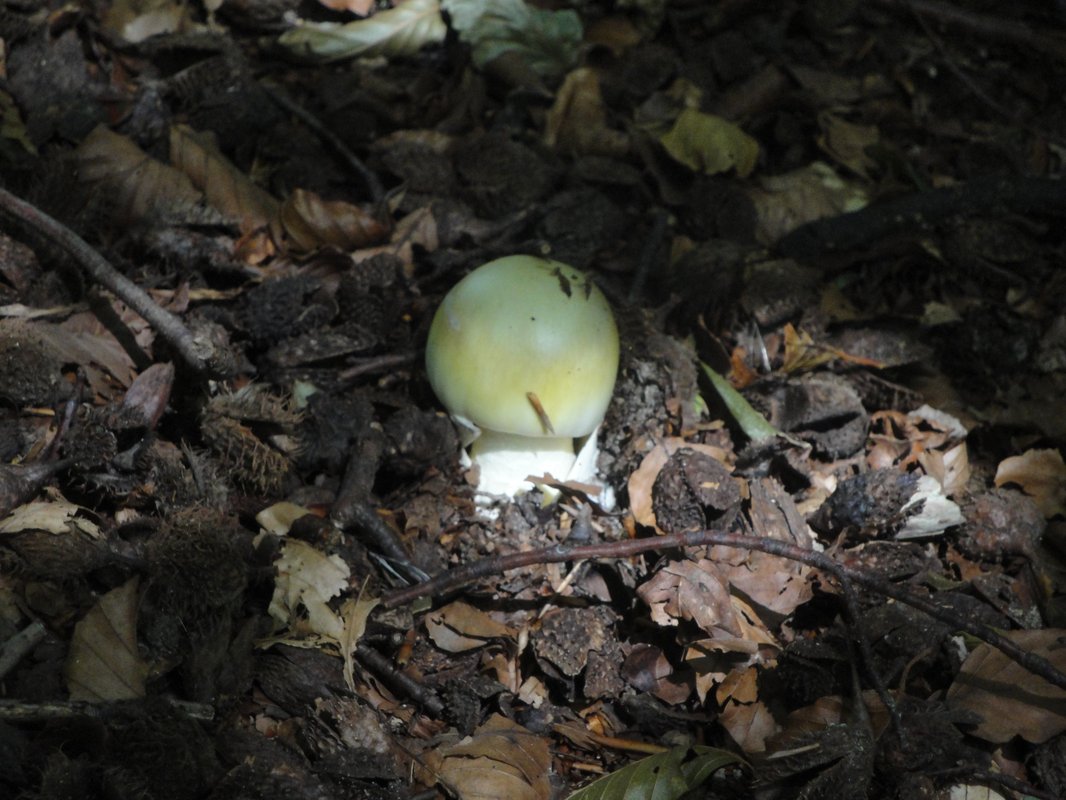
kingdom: Fungi
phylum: Basidiomycota
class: Agaricomycetes
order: Agaricales
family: Amanitaceae
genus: Amanita
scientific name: Amanita phalloides
